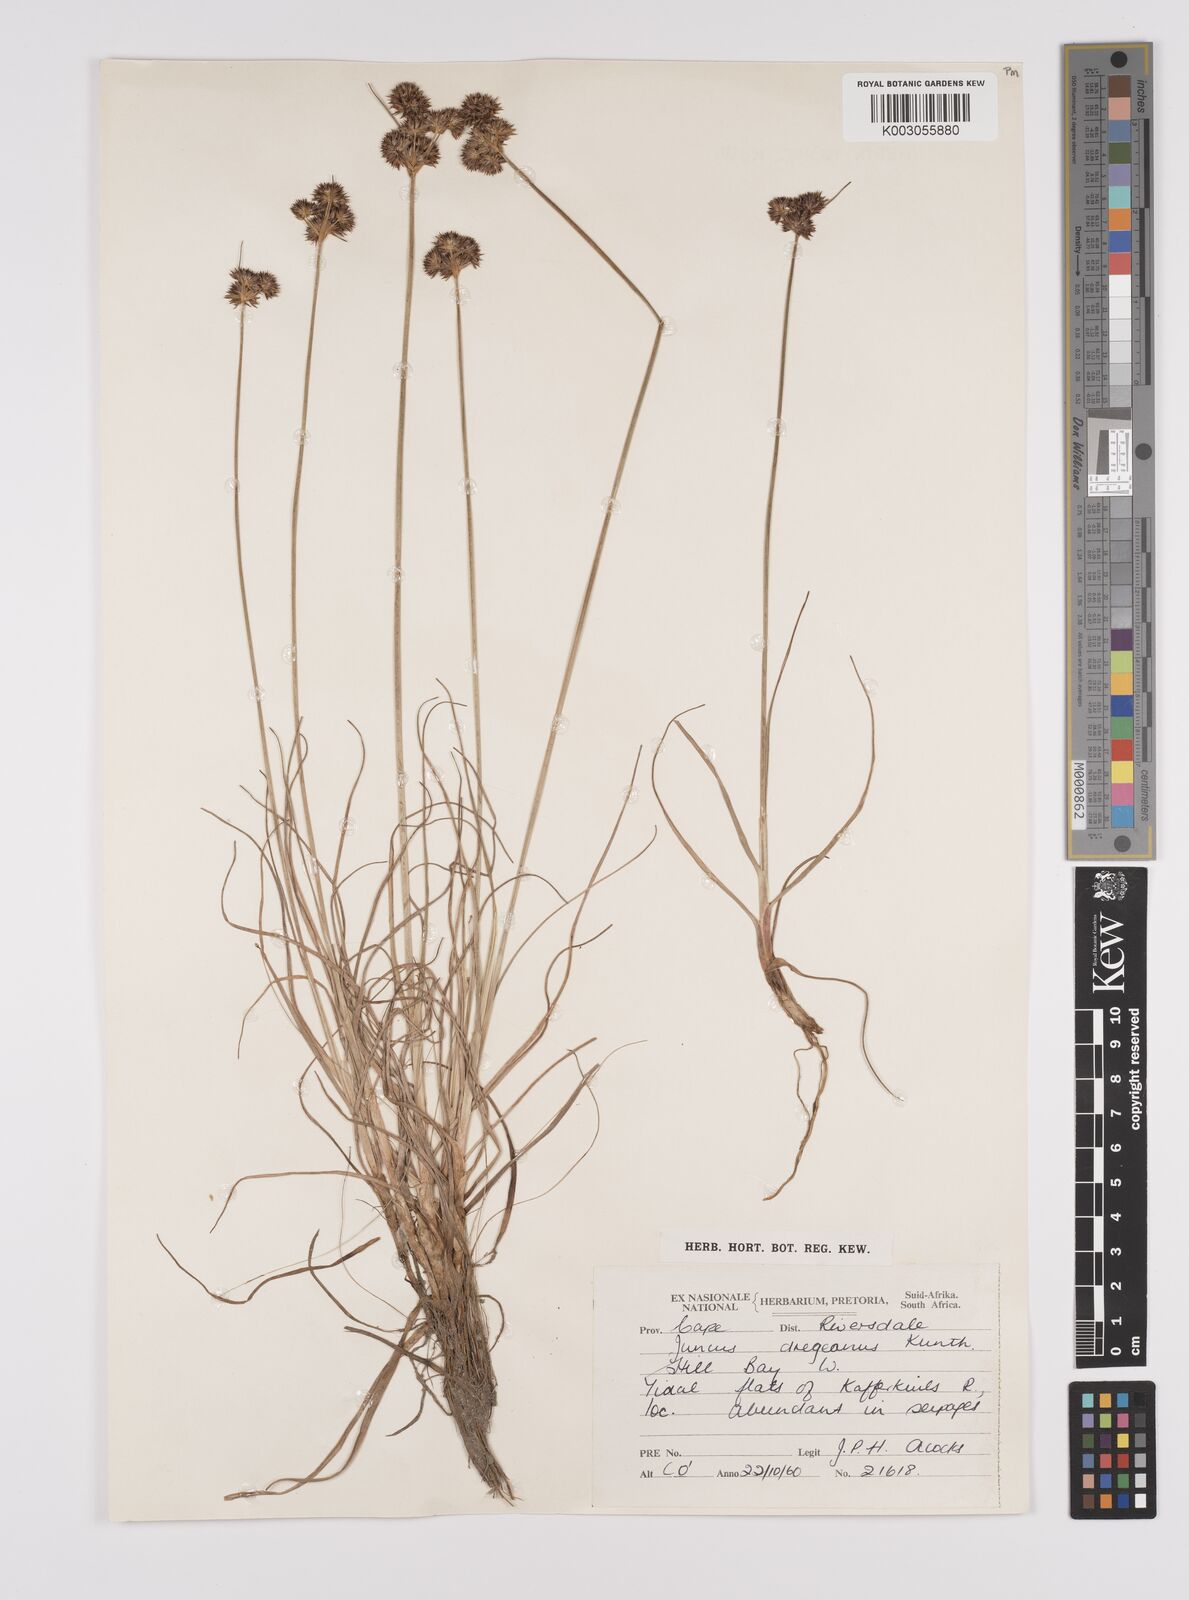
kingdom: Plantae
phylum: Tracheophyta
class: Liliopsida
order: Poales
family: Juncaceae
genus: Juncus
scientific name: Juncus dregeanus
